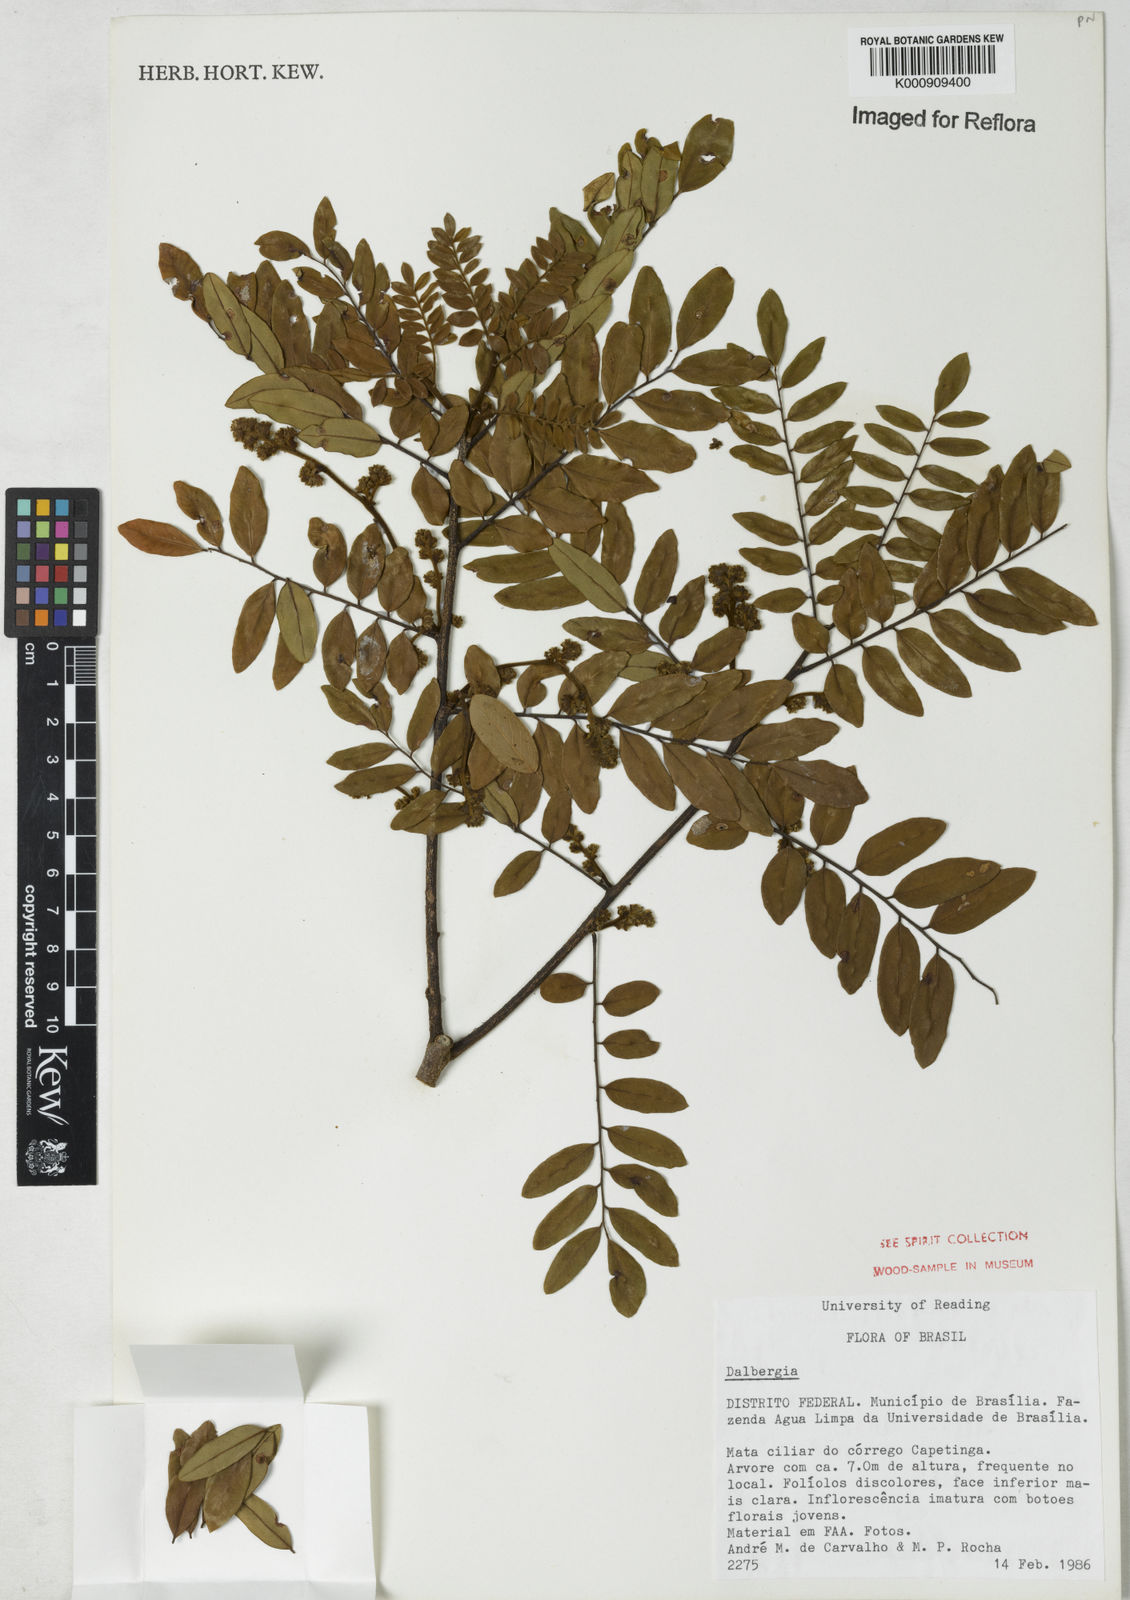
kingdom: Plantae
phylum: Tracheophyta
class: Magnoliopsida
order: Fabales
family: Fabaceae
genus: Dalbergia
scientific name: Dalbergia
